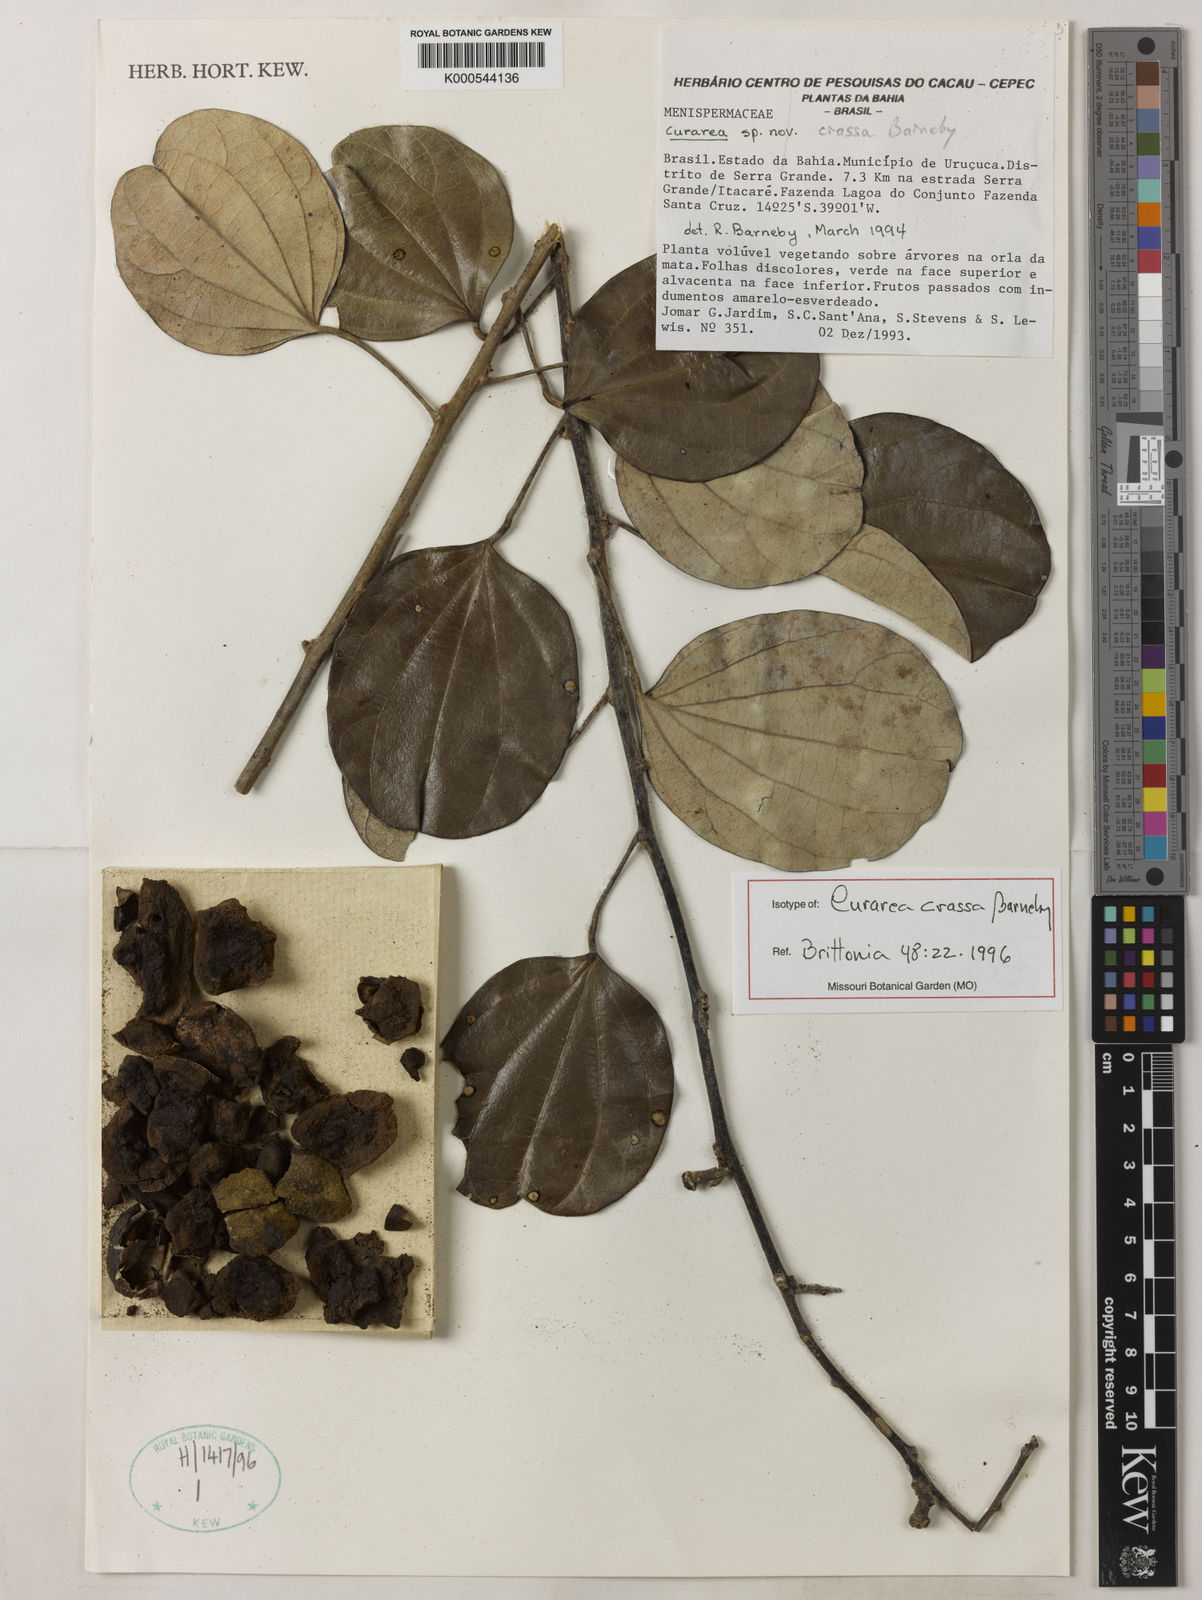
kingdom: Plantae
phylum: Tracheophyta
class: Magnoliopsida
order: Ranunculales
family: Menispermaceae
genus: Curarea
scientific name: Curarea crassa
